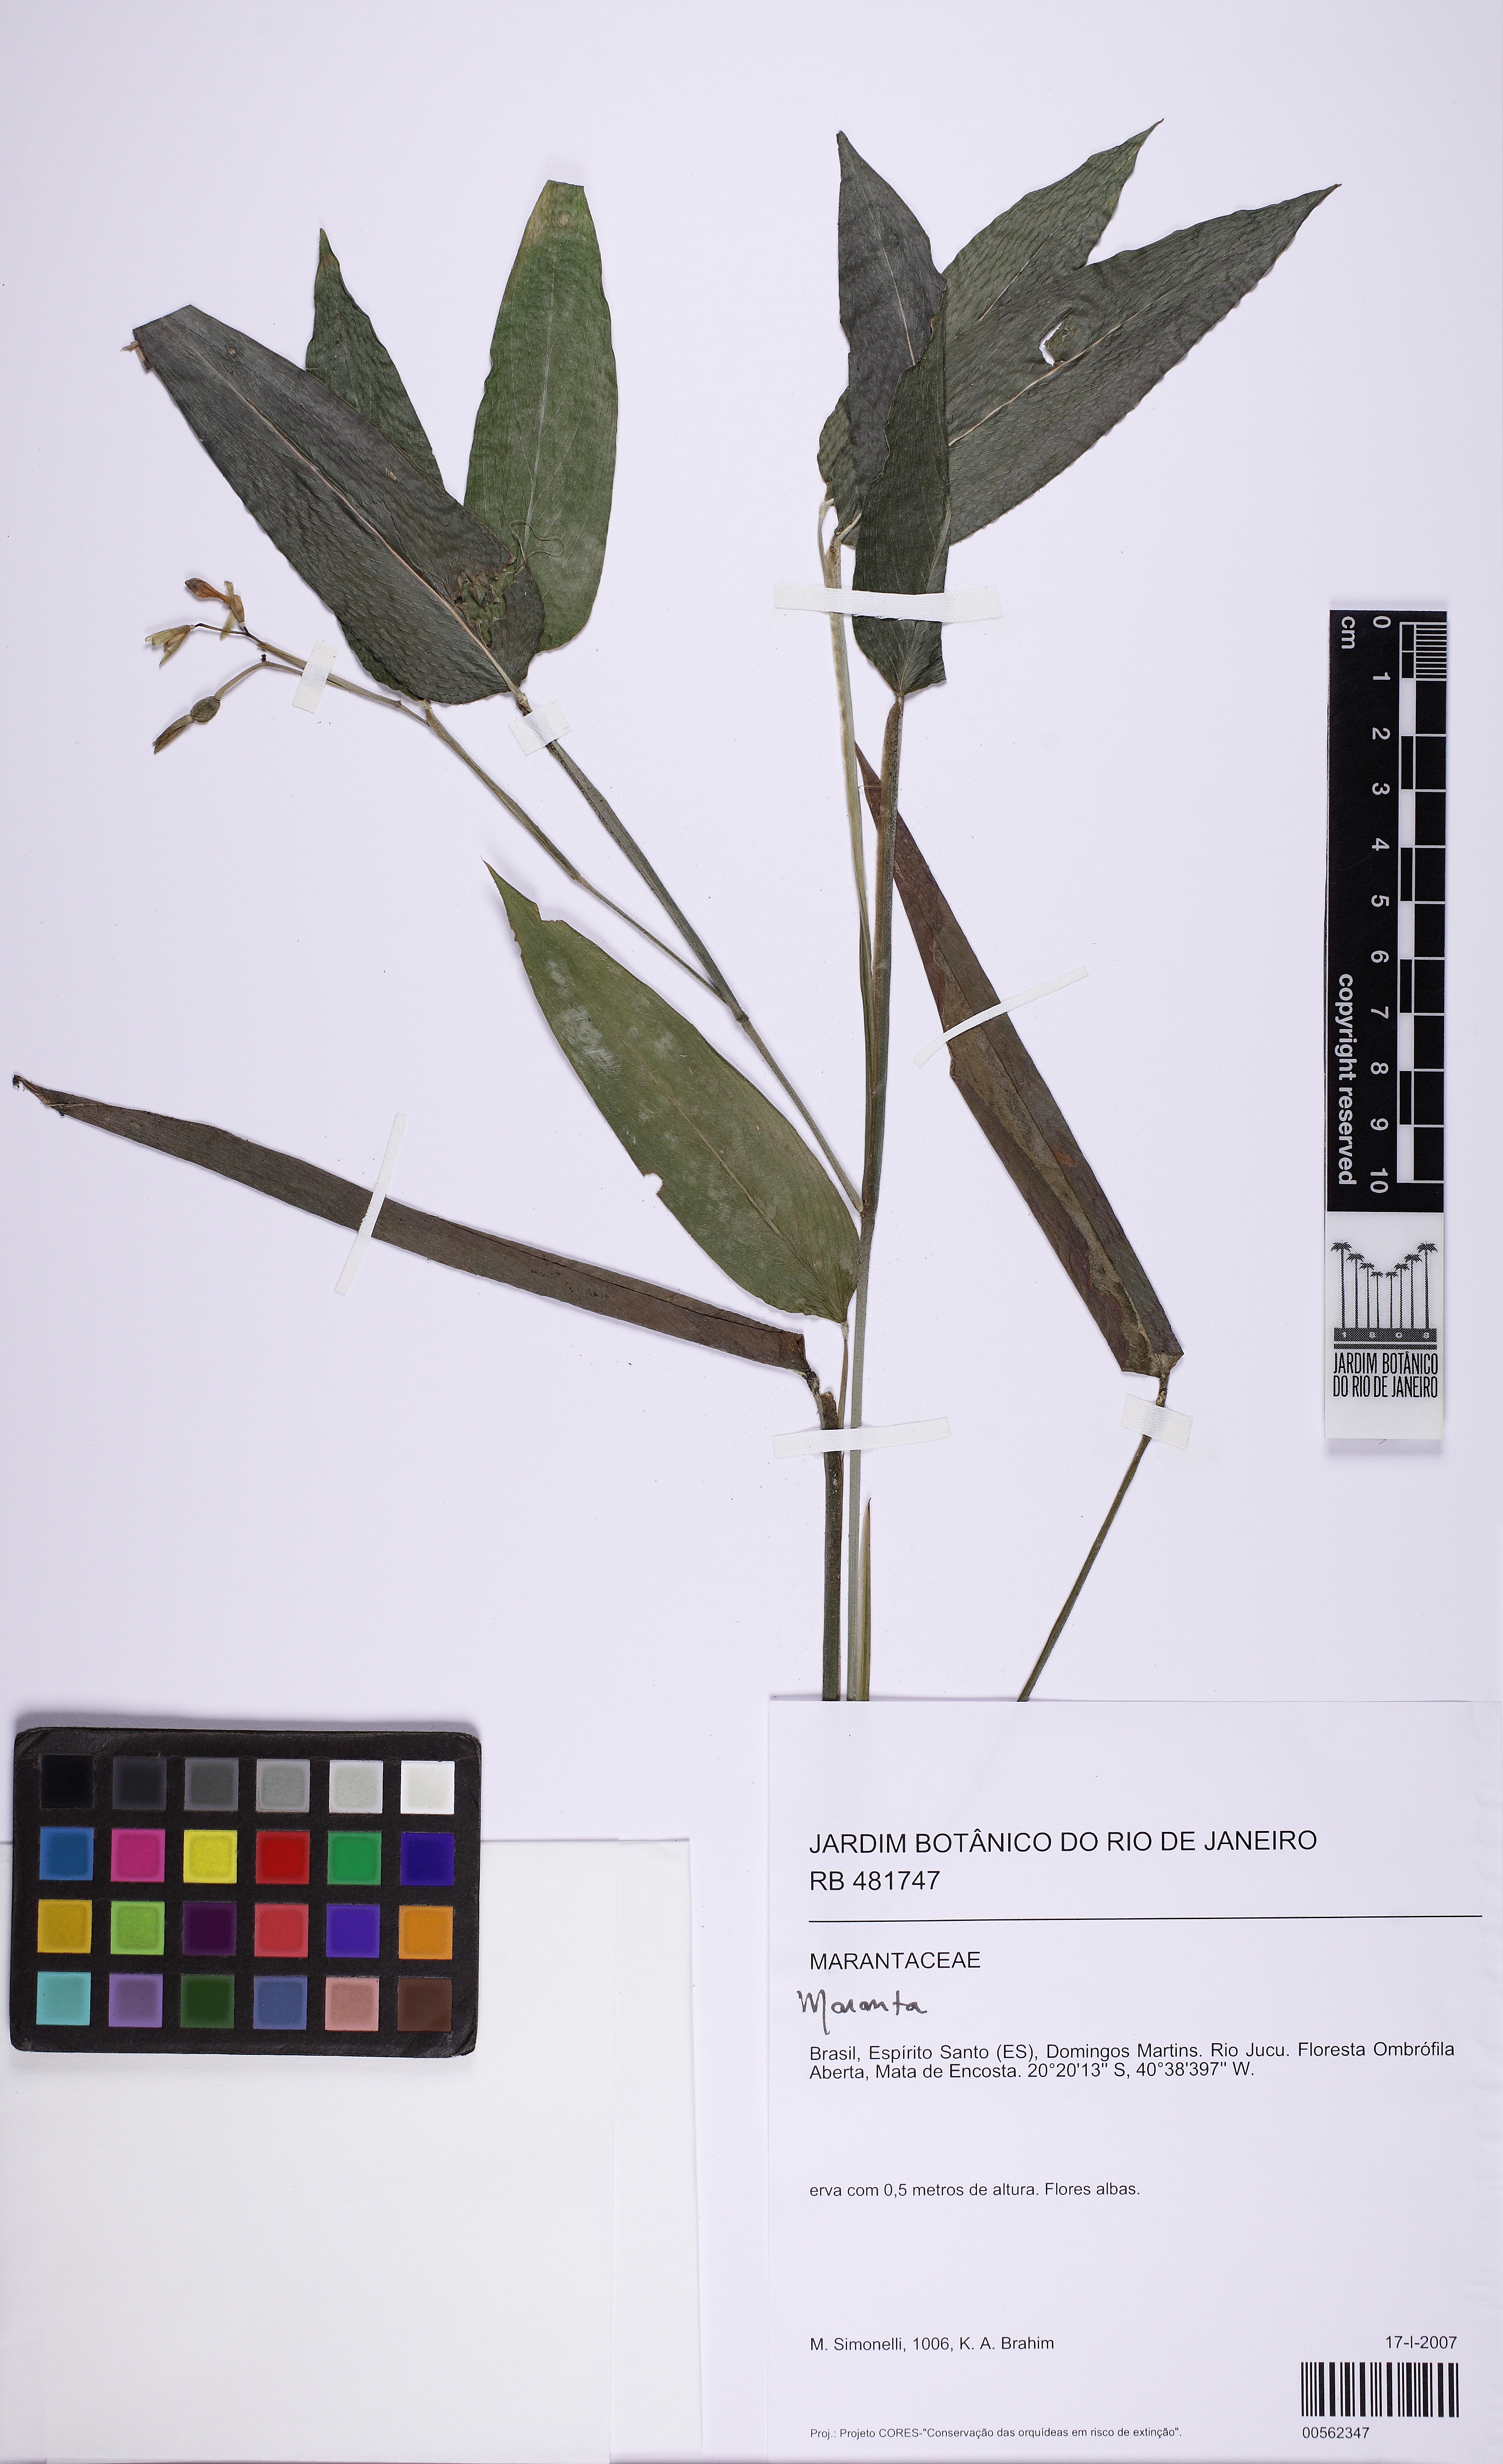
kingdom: Plantae
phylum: Tracheophyta
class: Liliopsida
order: Zingiberales
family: Marantaceae
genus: Maranta
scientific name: Maranta divaricata
